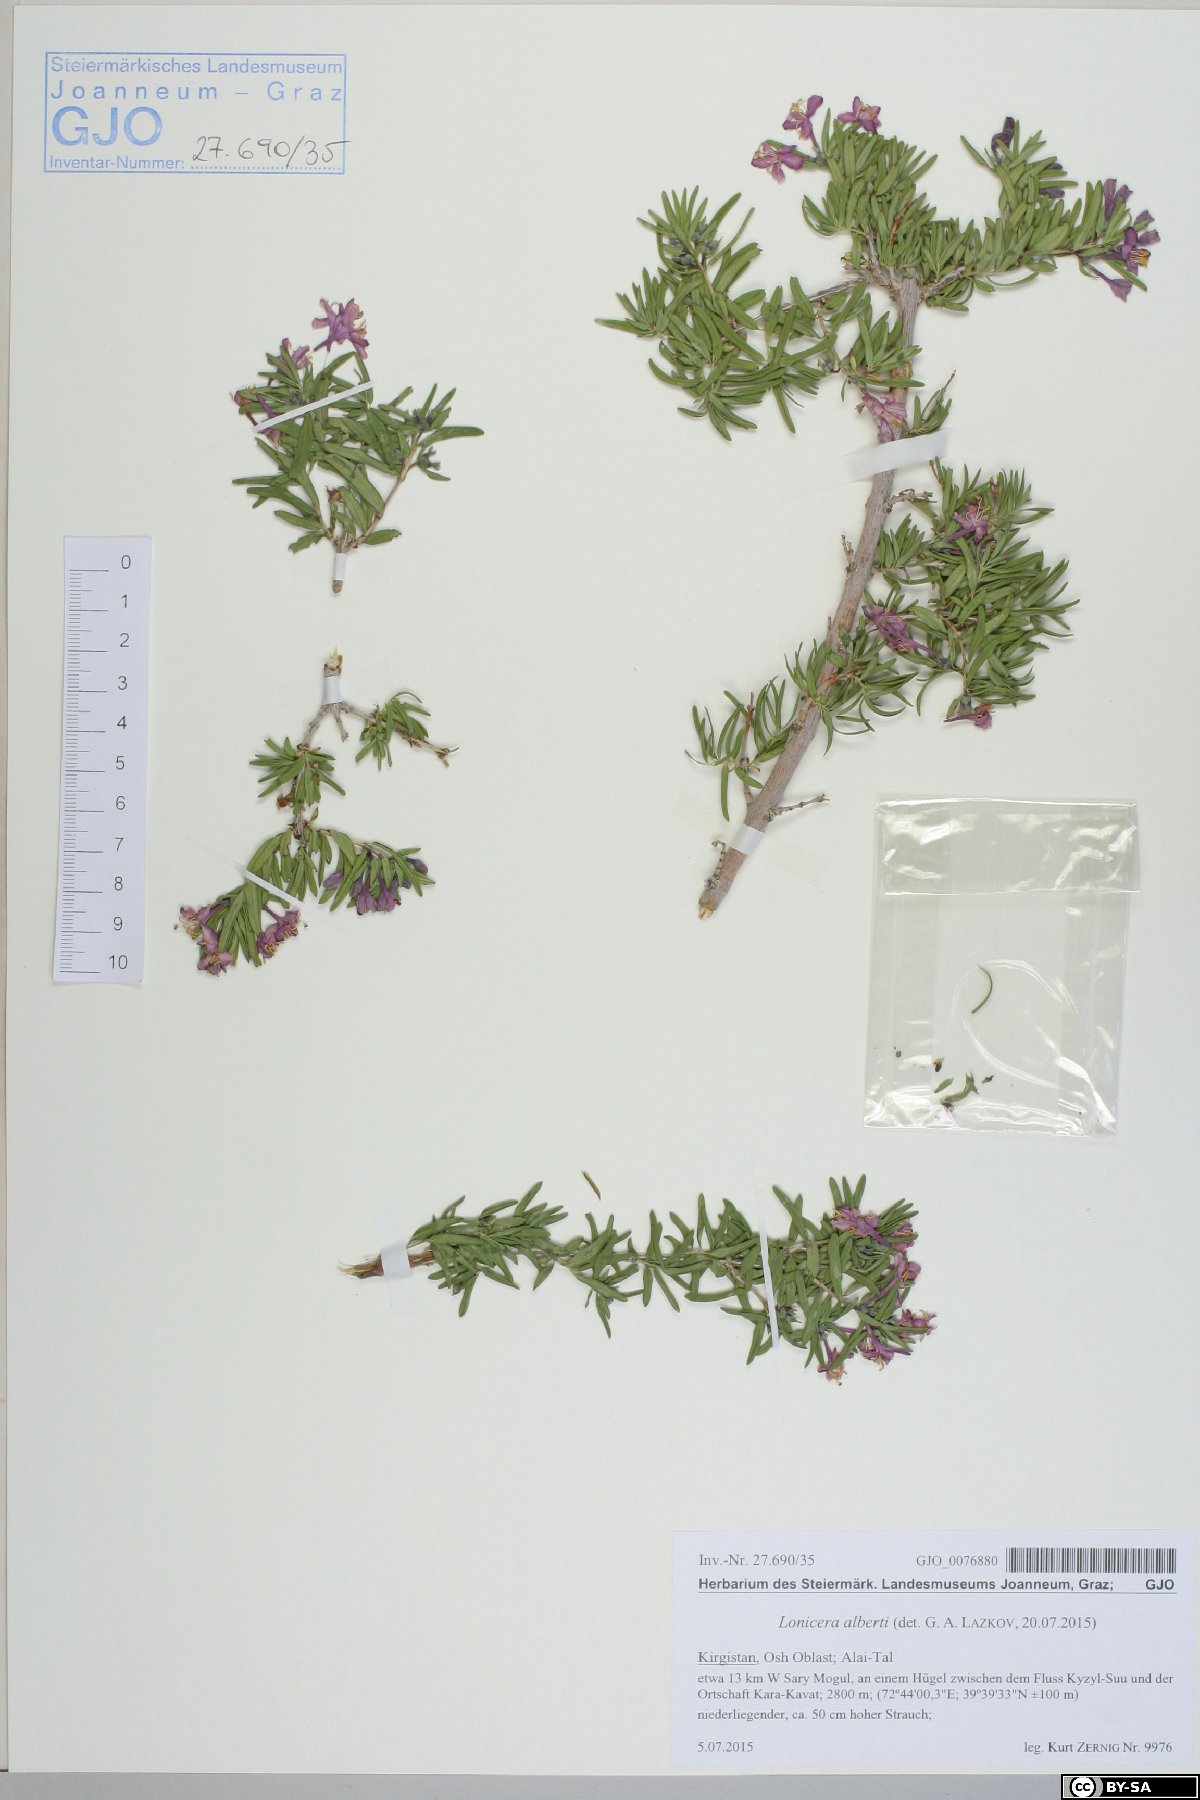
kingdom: Plantae
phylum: Tracheophyta
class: Magnoliopsida
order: Dipsacales
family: Caprifoliaceae
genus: Lonicera
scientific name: Lonicera alberti
